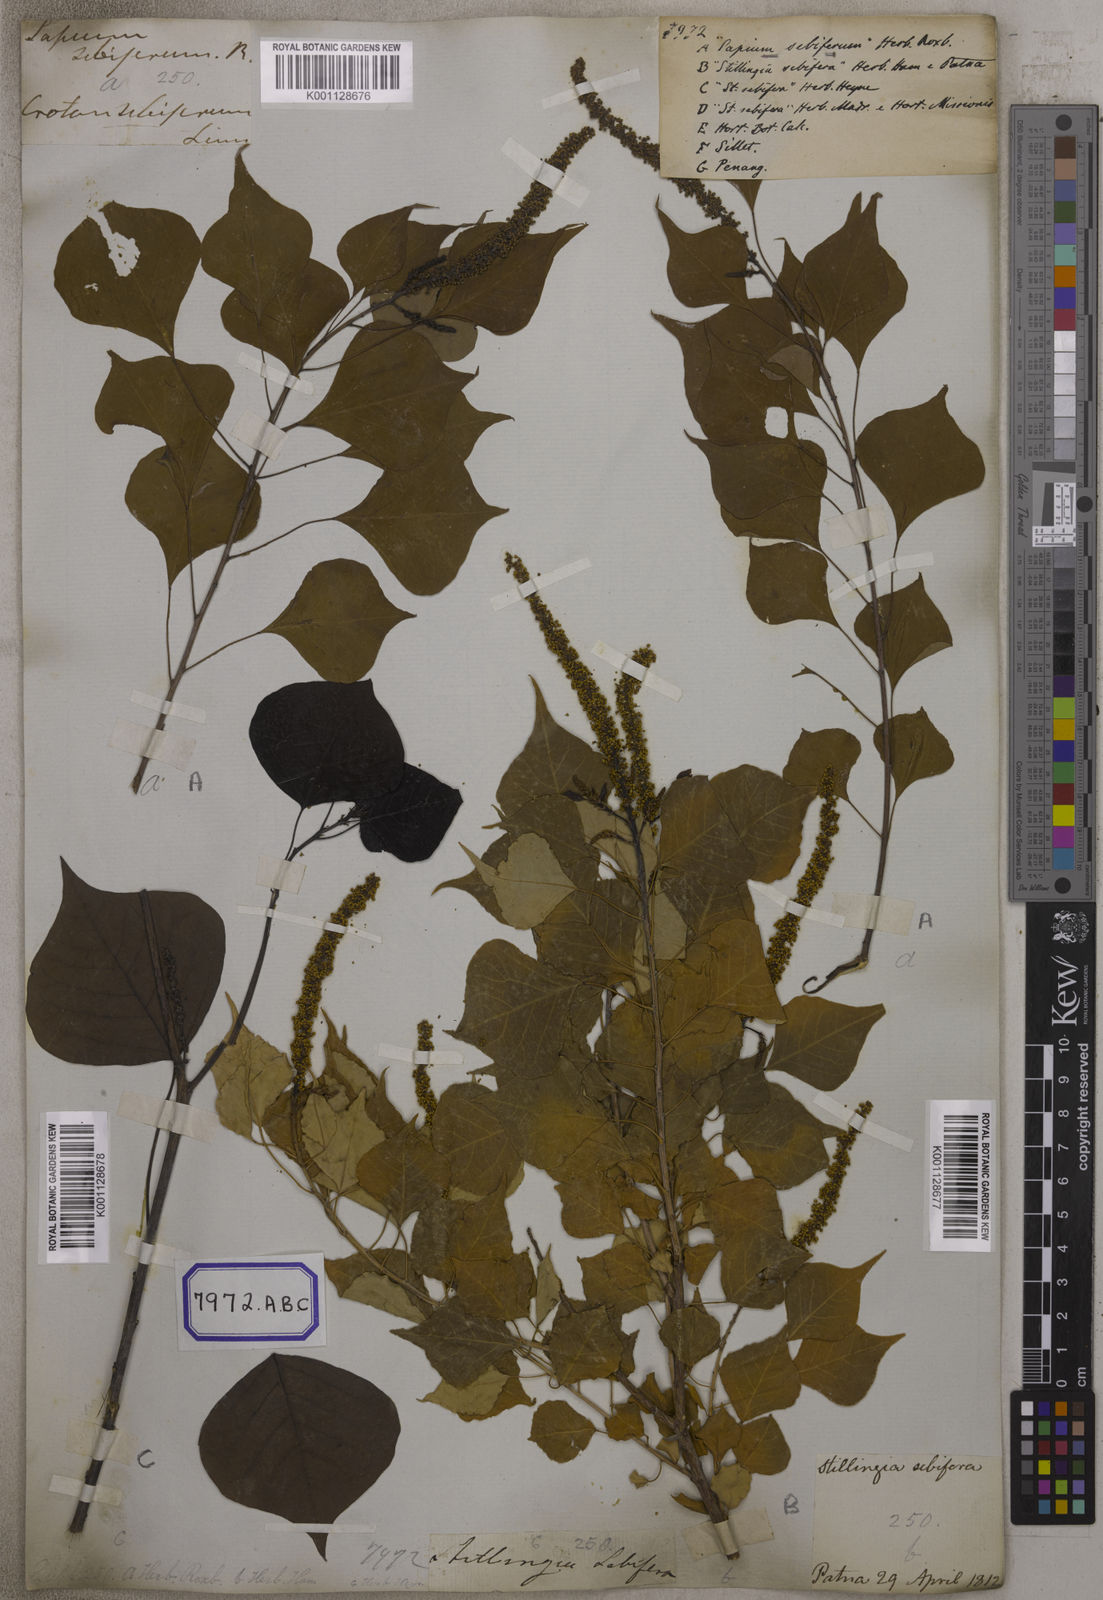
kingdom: Plantae
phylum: Tracheophyta
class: Magnoliopsida
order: Malpighiales
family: Euphorbiaceae
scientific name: Euphorbiaceae
